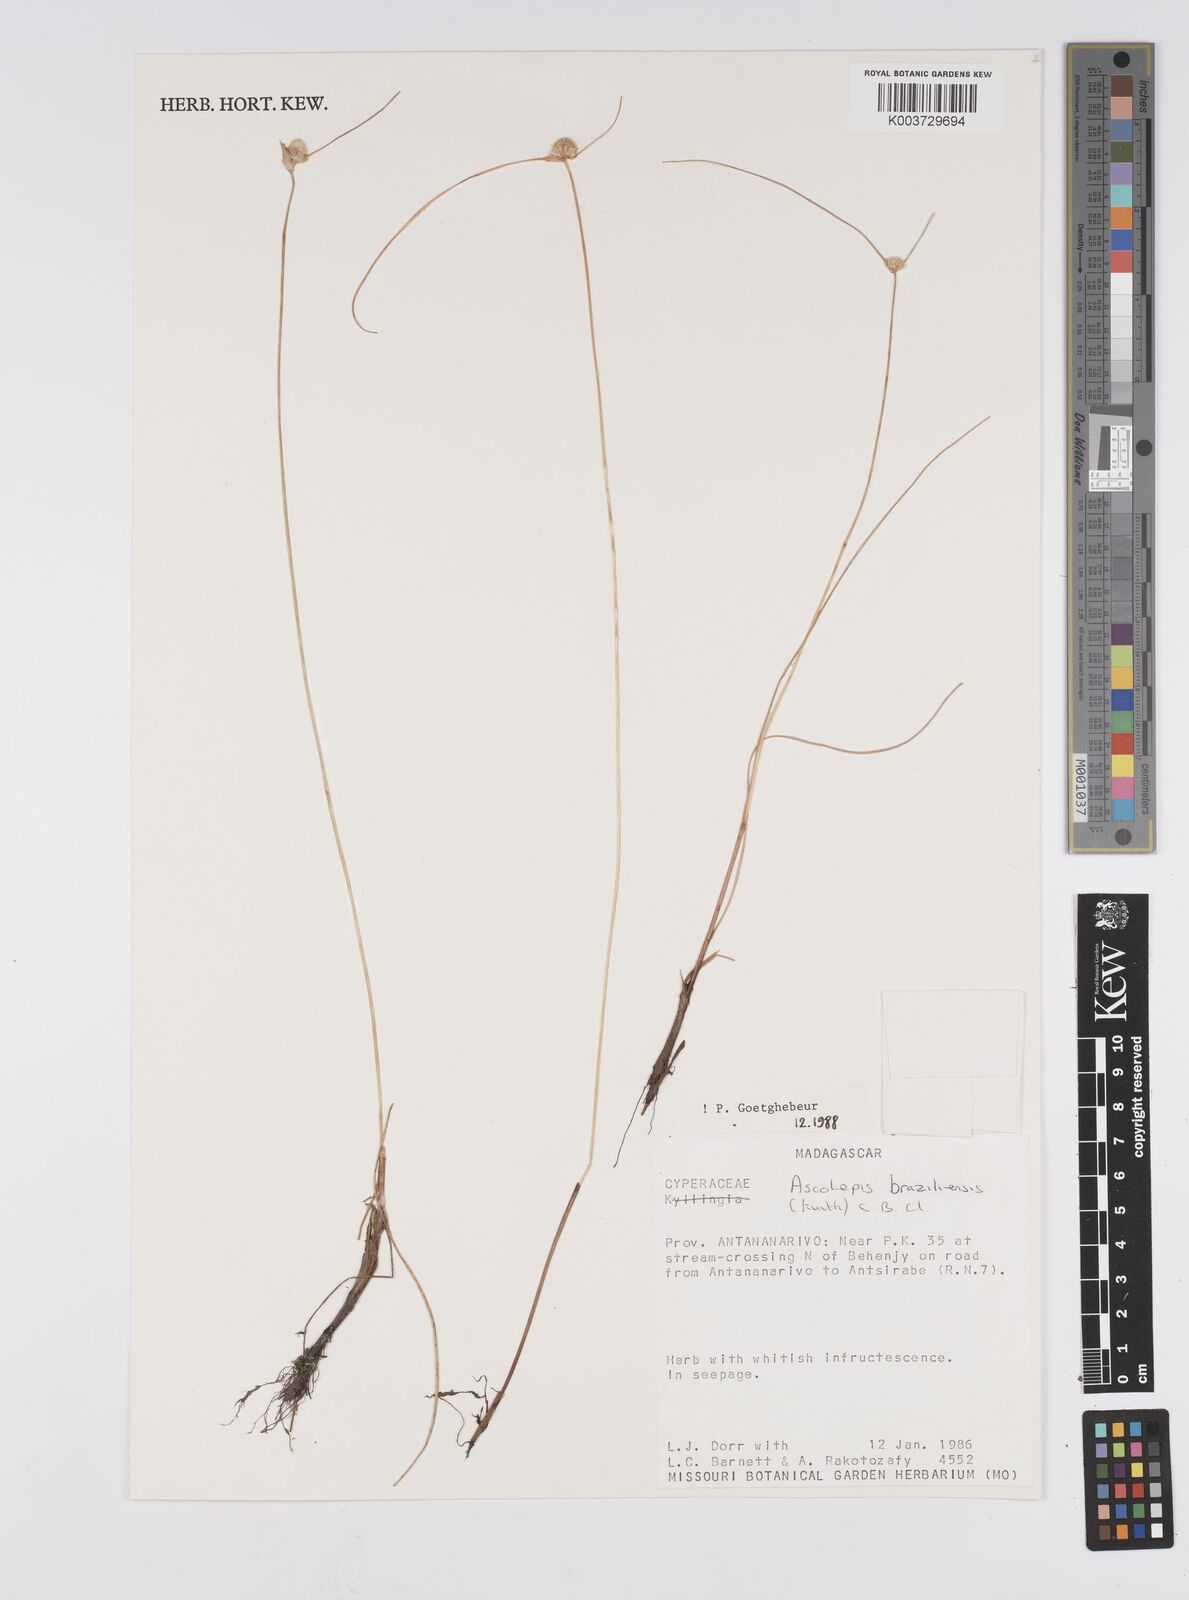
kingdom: Plantae
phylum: Tracheophyta
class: Liliopsida
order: Poales
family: Cyperaceae
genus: Cyperus
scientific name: Cyperus brasiliensis
